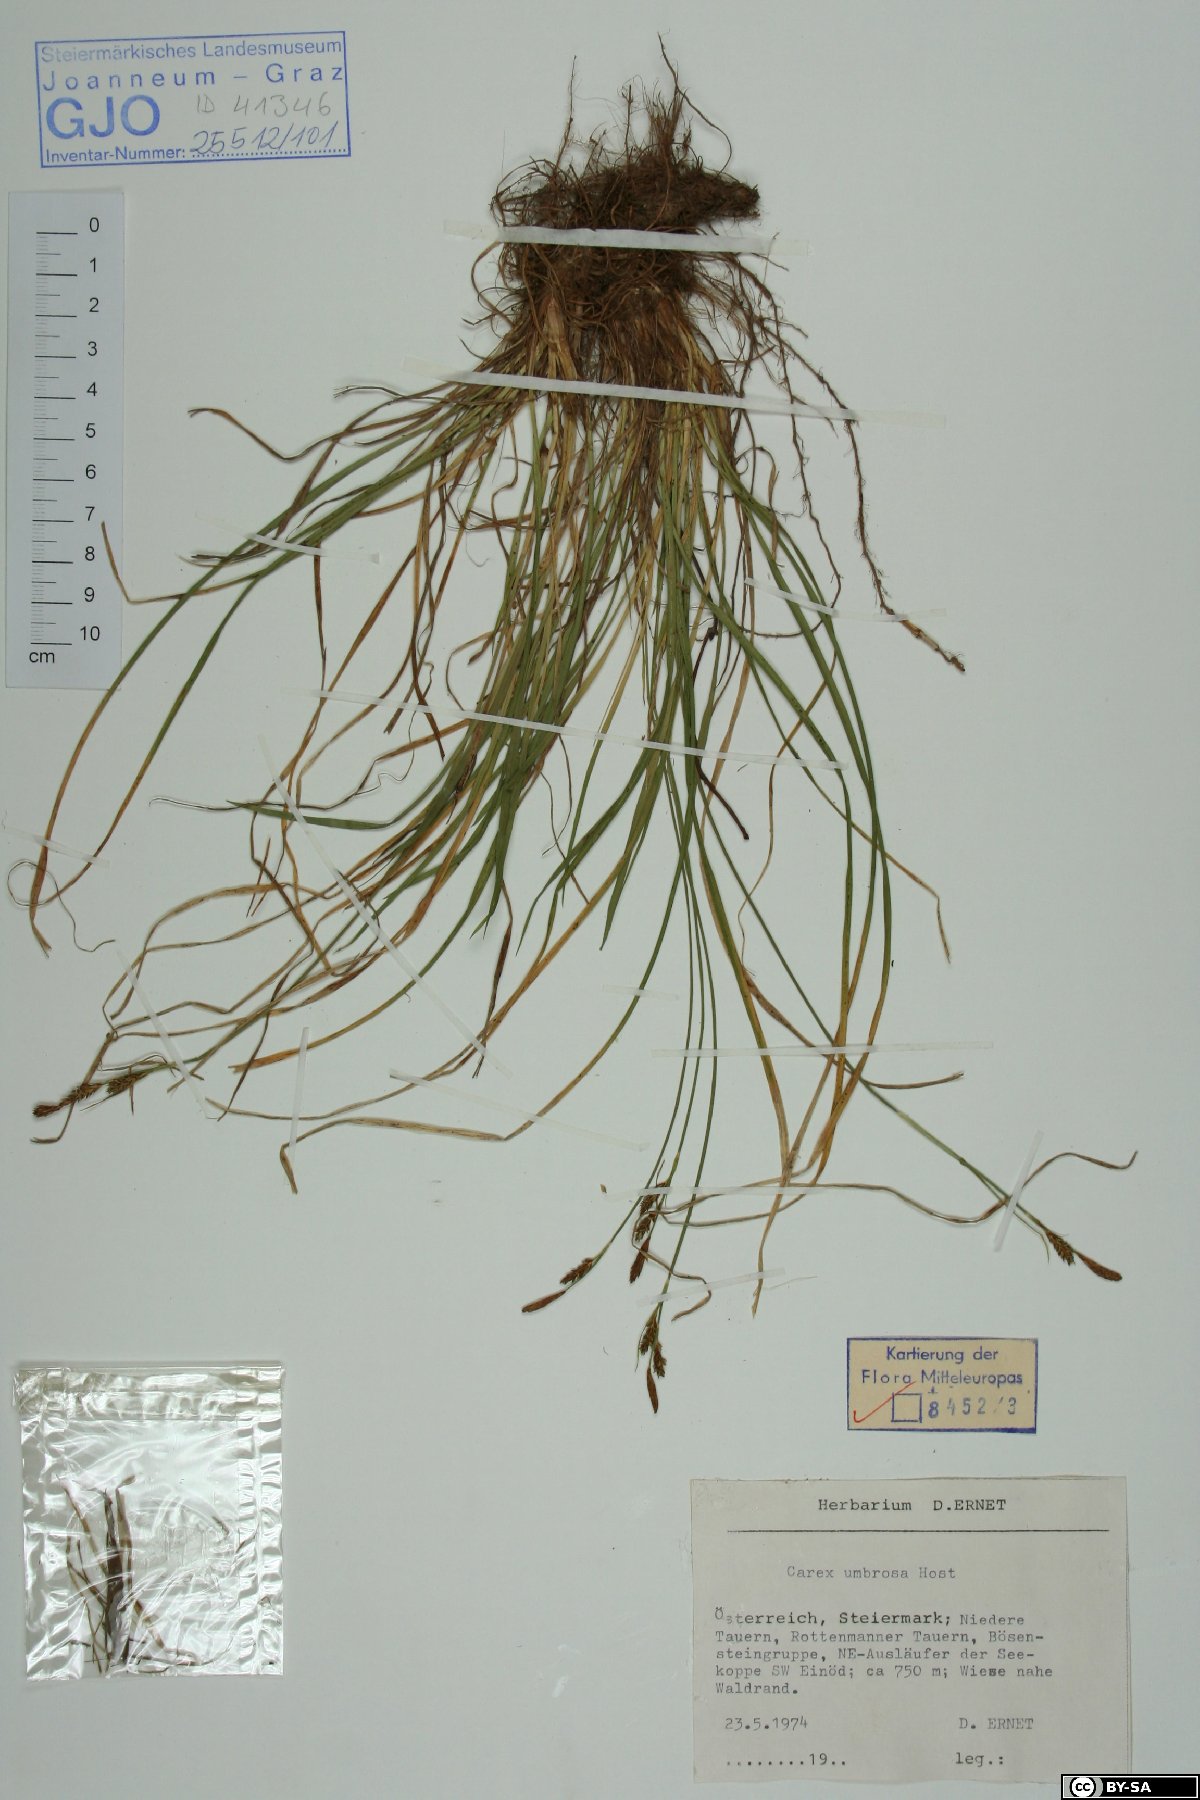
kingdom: Plantae
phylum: Tracheophyta
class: Liliopsida
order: Poales
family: Cyperaceae
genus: Carex
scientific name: Carex umbrosa
